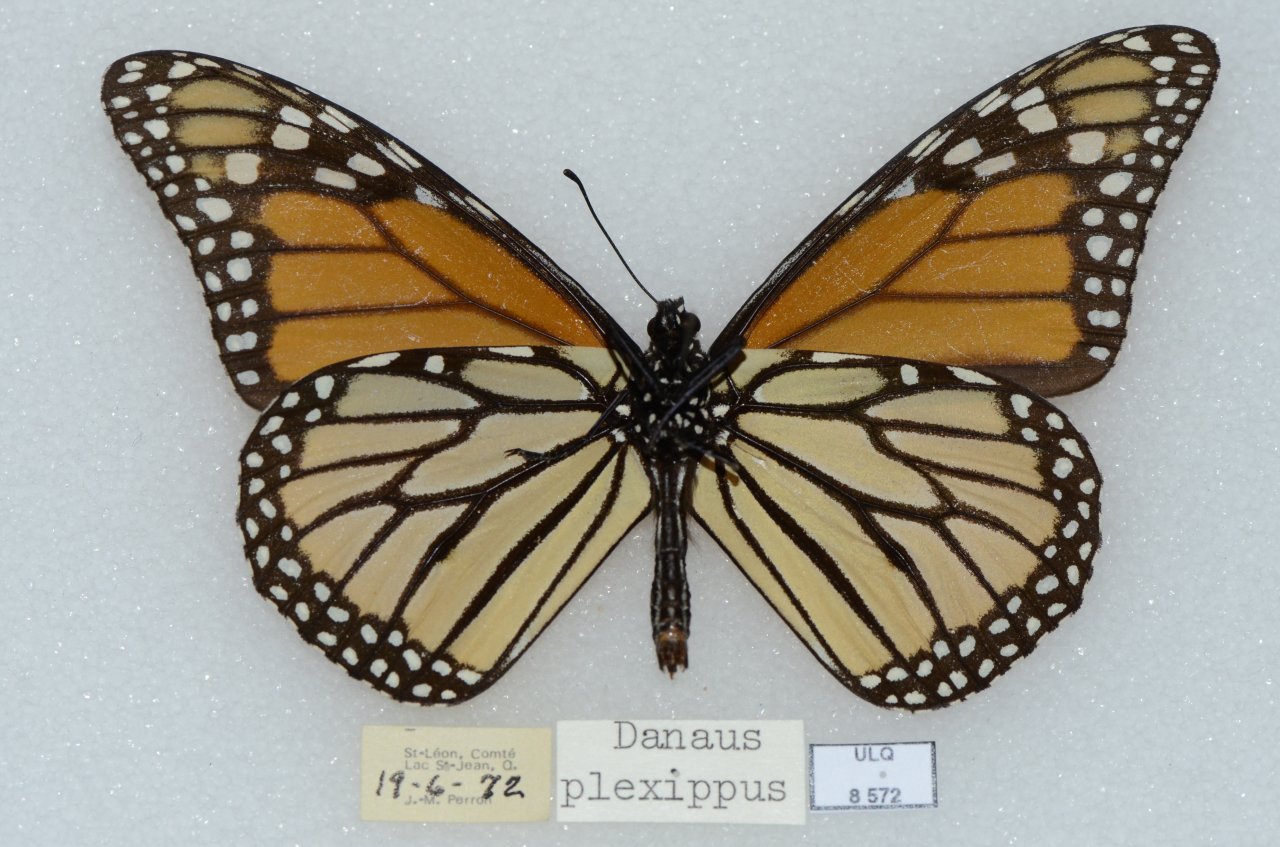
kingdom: Animalia
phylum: Arthropoda
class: Insecta
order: Lepidoptera
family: Nymphalidae
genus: Danaus
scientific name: Danaus plexippus
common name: Monarch
